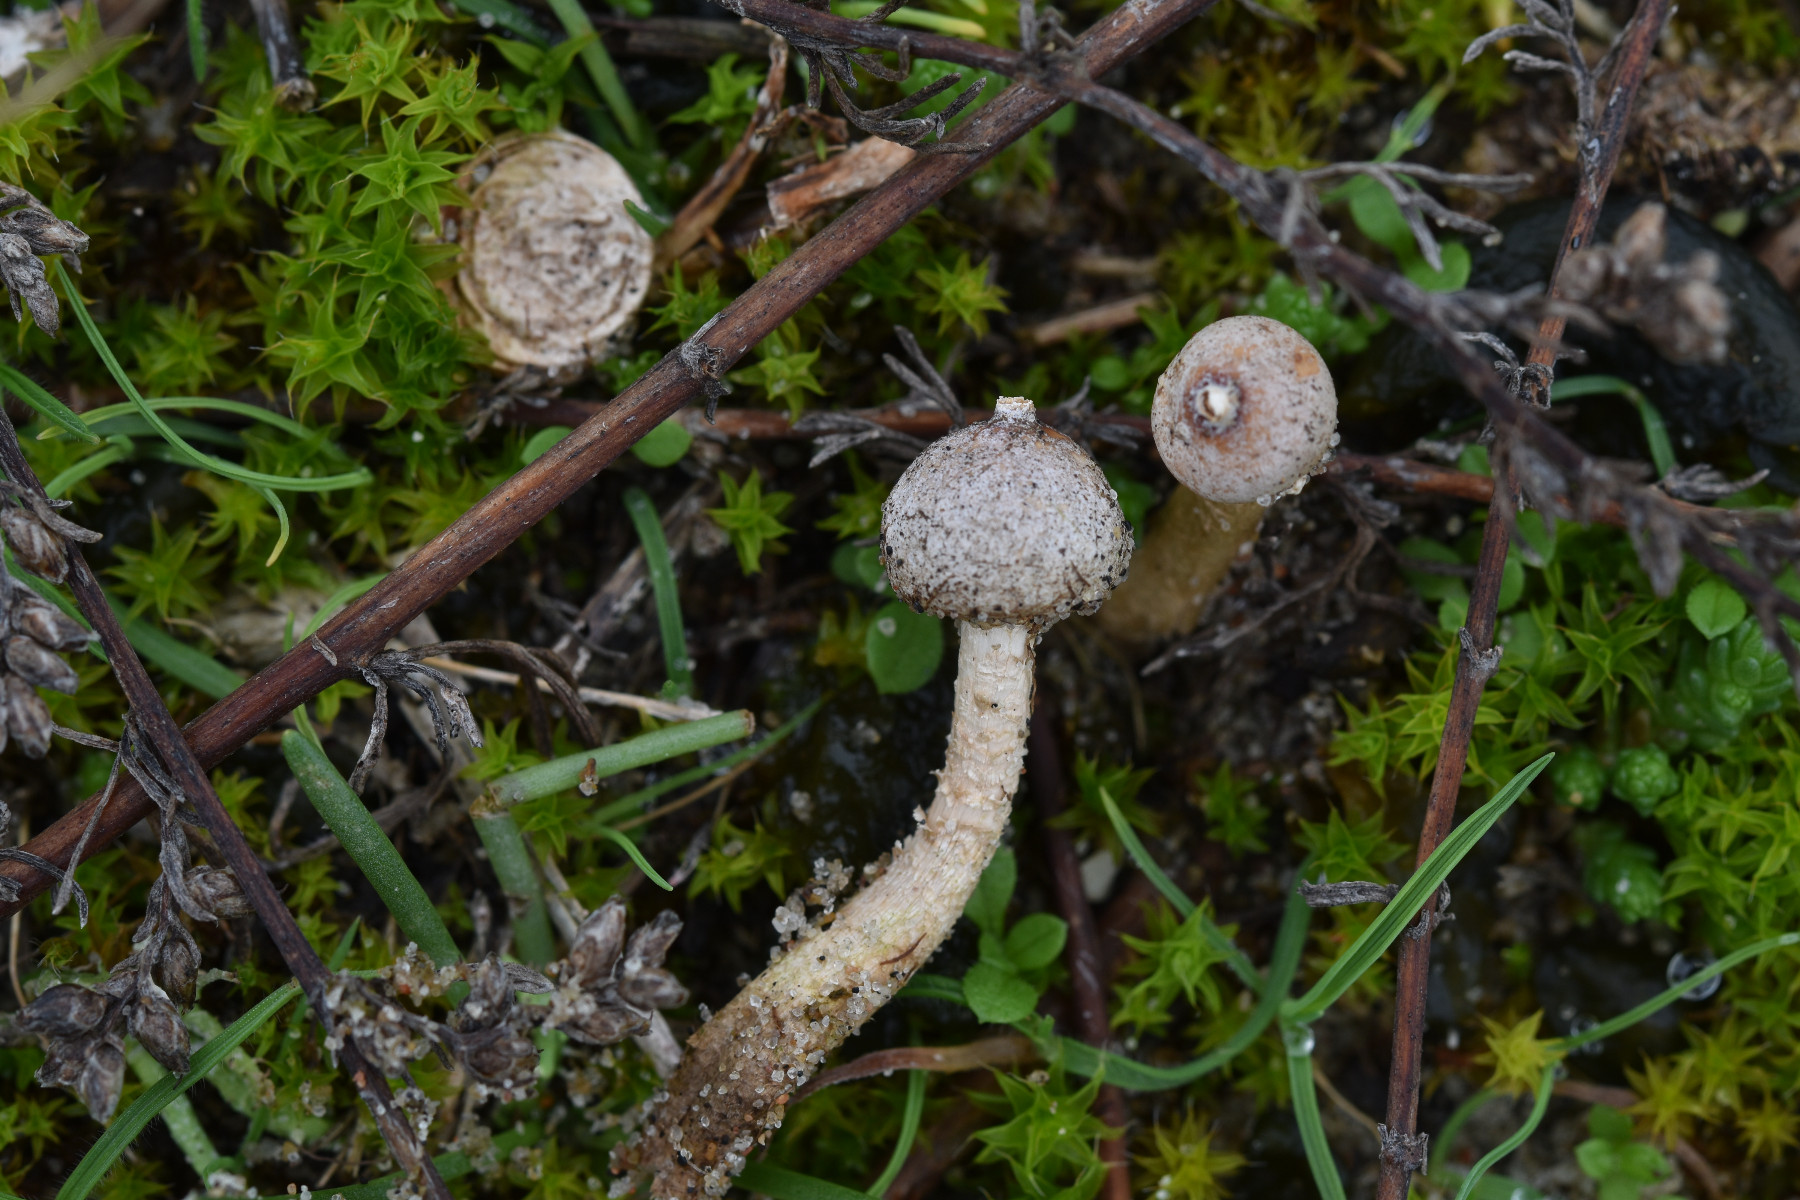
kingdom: Fungi
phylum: Basidiomycota
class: Agaricomycetes
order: Agaricales
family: Agaricaceae
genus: Tulostoma
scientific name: Tulostoma brumale
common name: vinter-stilkbovist
